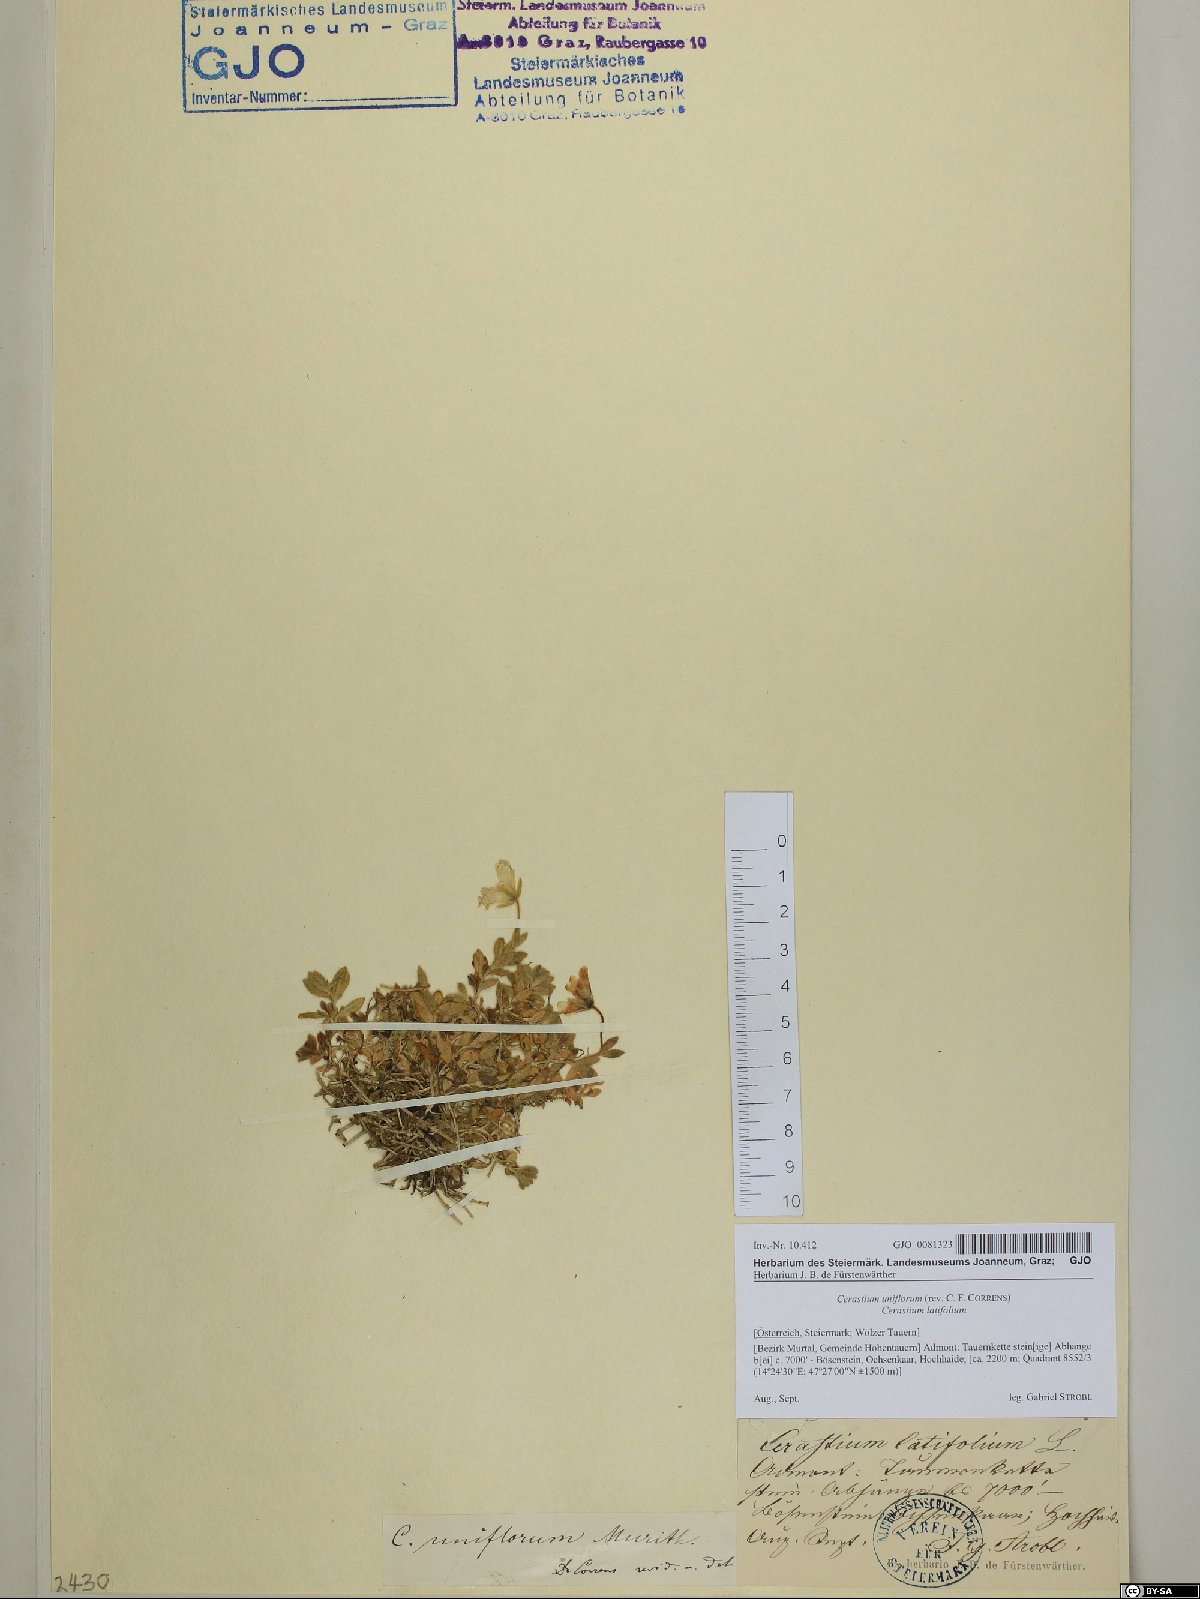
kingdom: Plantae
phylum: Tracheophyta
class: Magnoliopsida
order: Caryophyllales
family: Caryophyllaceae
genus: Cerastium
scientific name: Cerastium uniflorum
